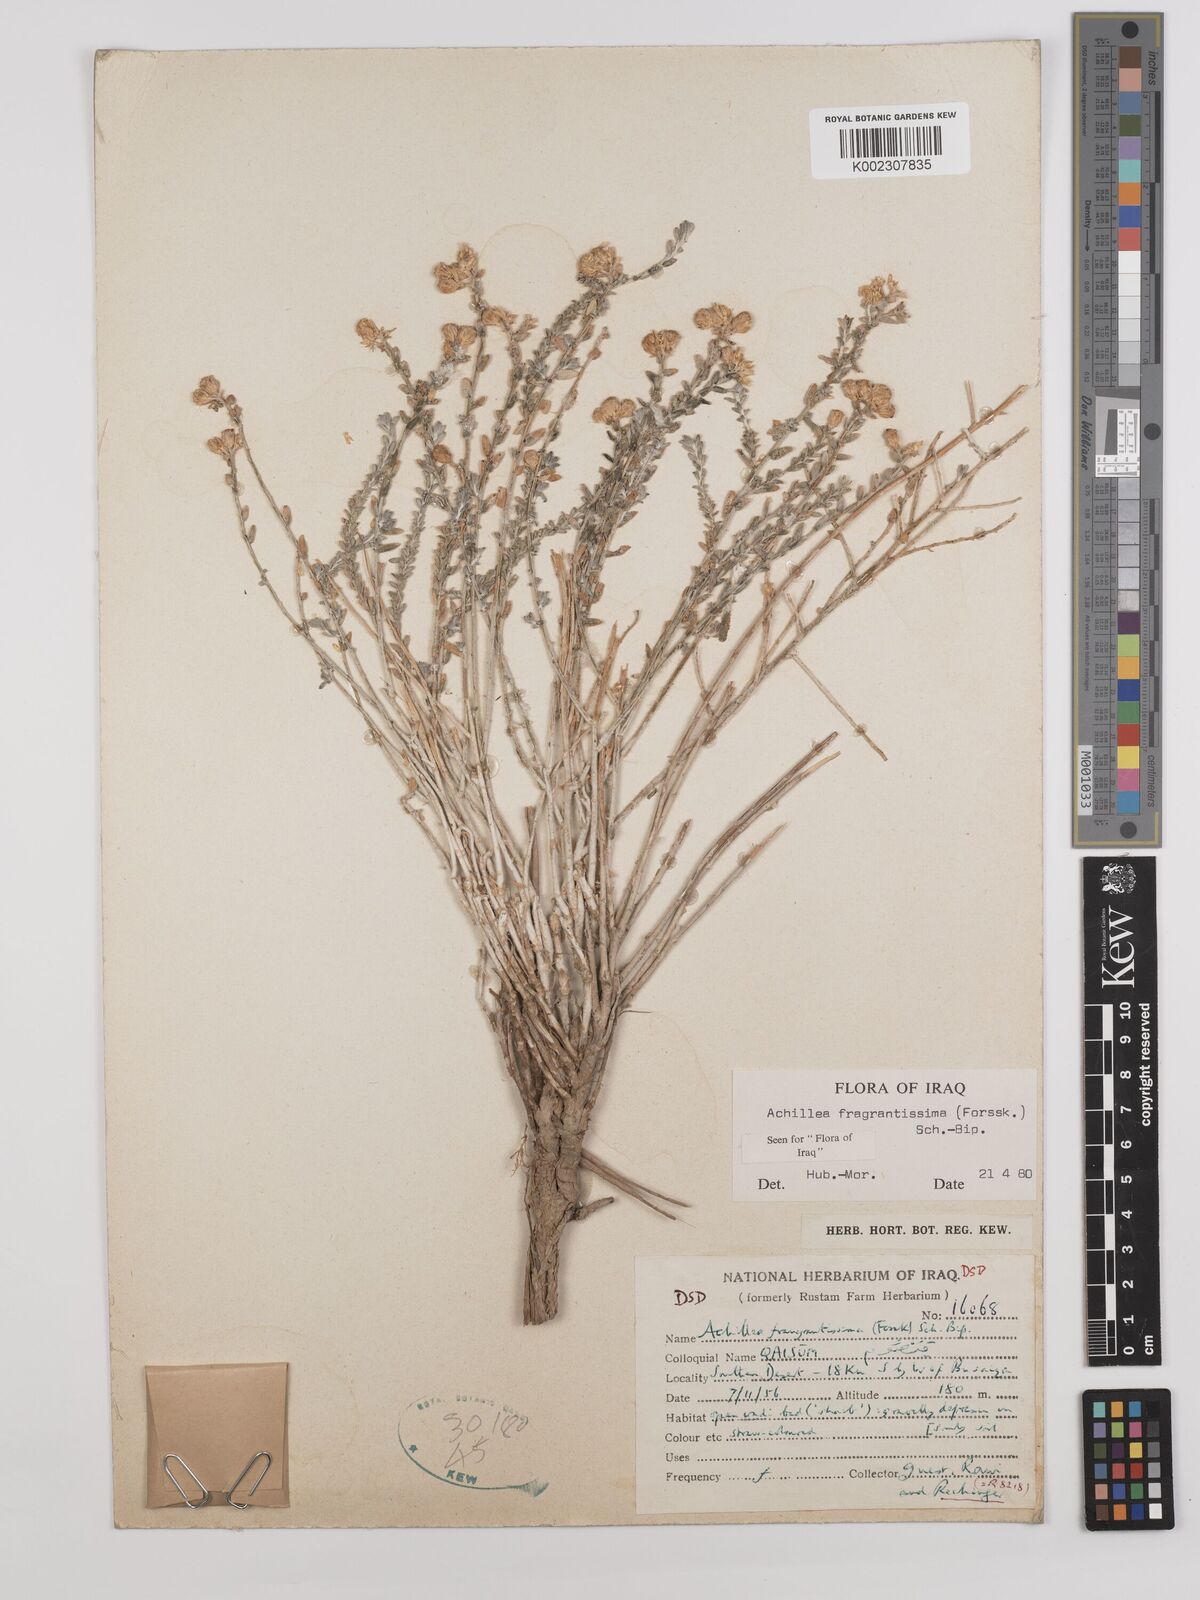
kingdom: Plantae
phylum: Tracheophyta
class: Magnoliopsida
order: Asterales
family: Asteraceae
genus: Achillea
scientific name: Achillea fragrantissima
